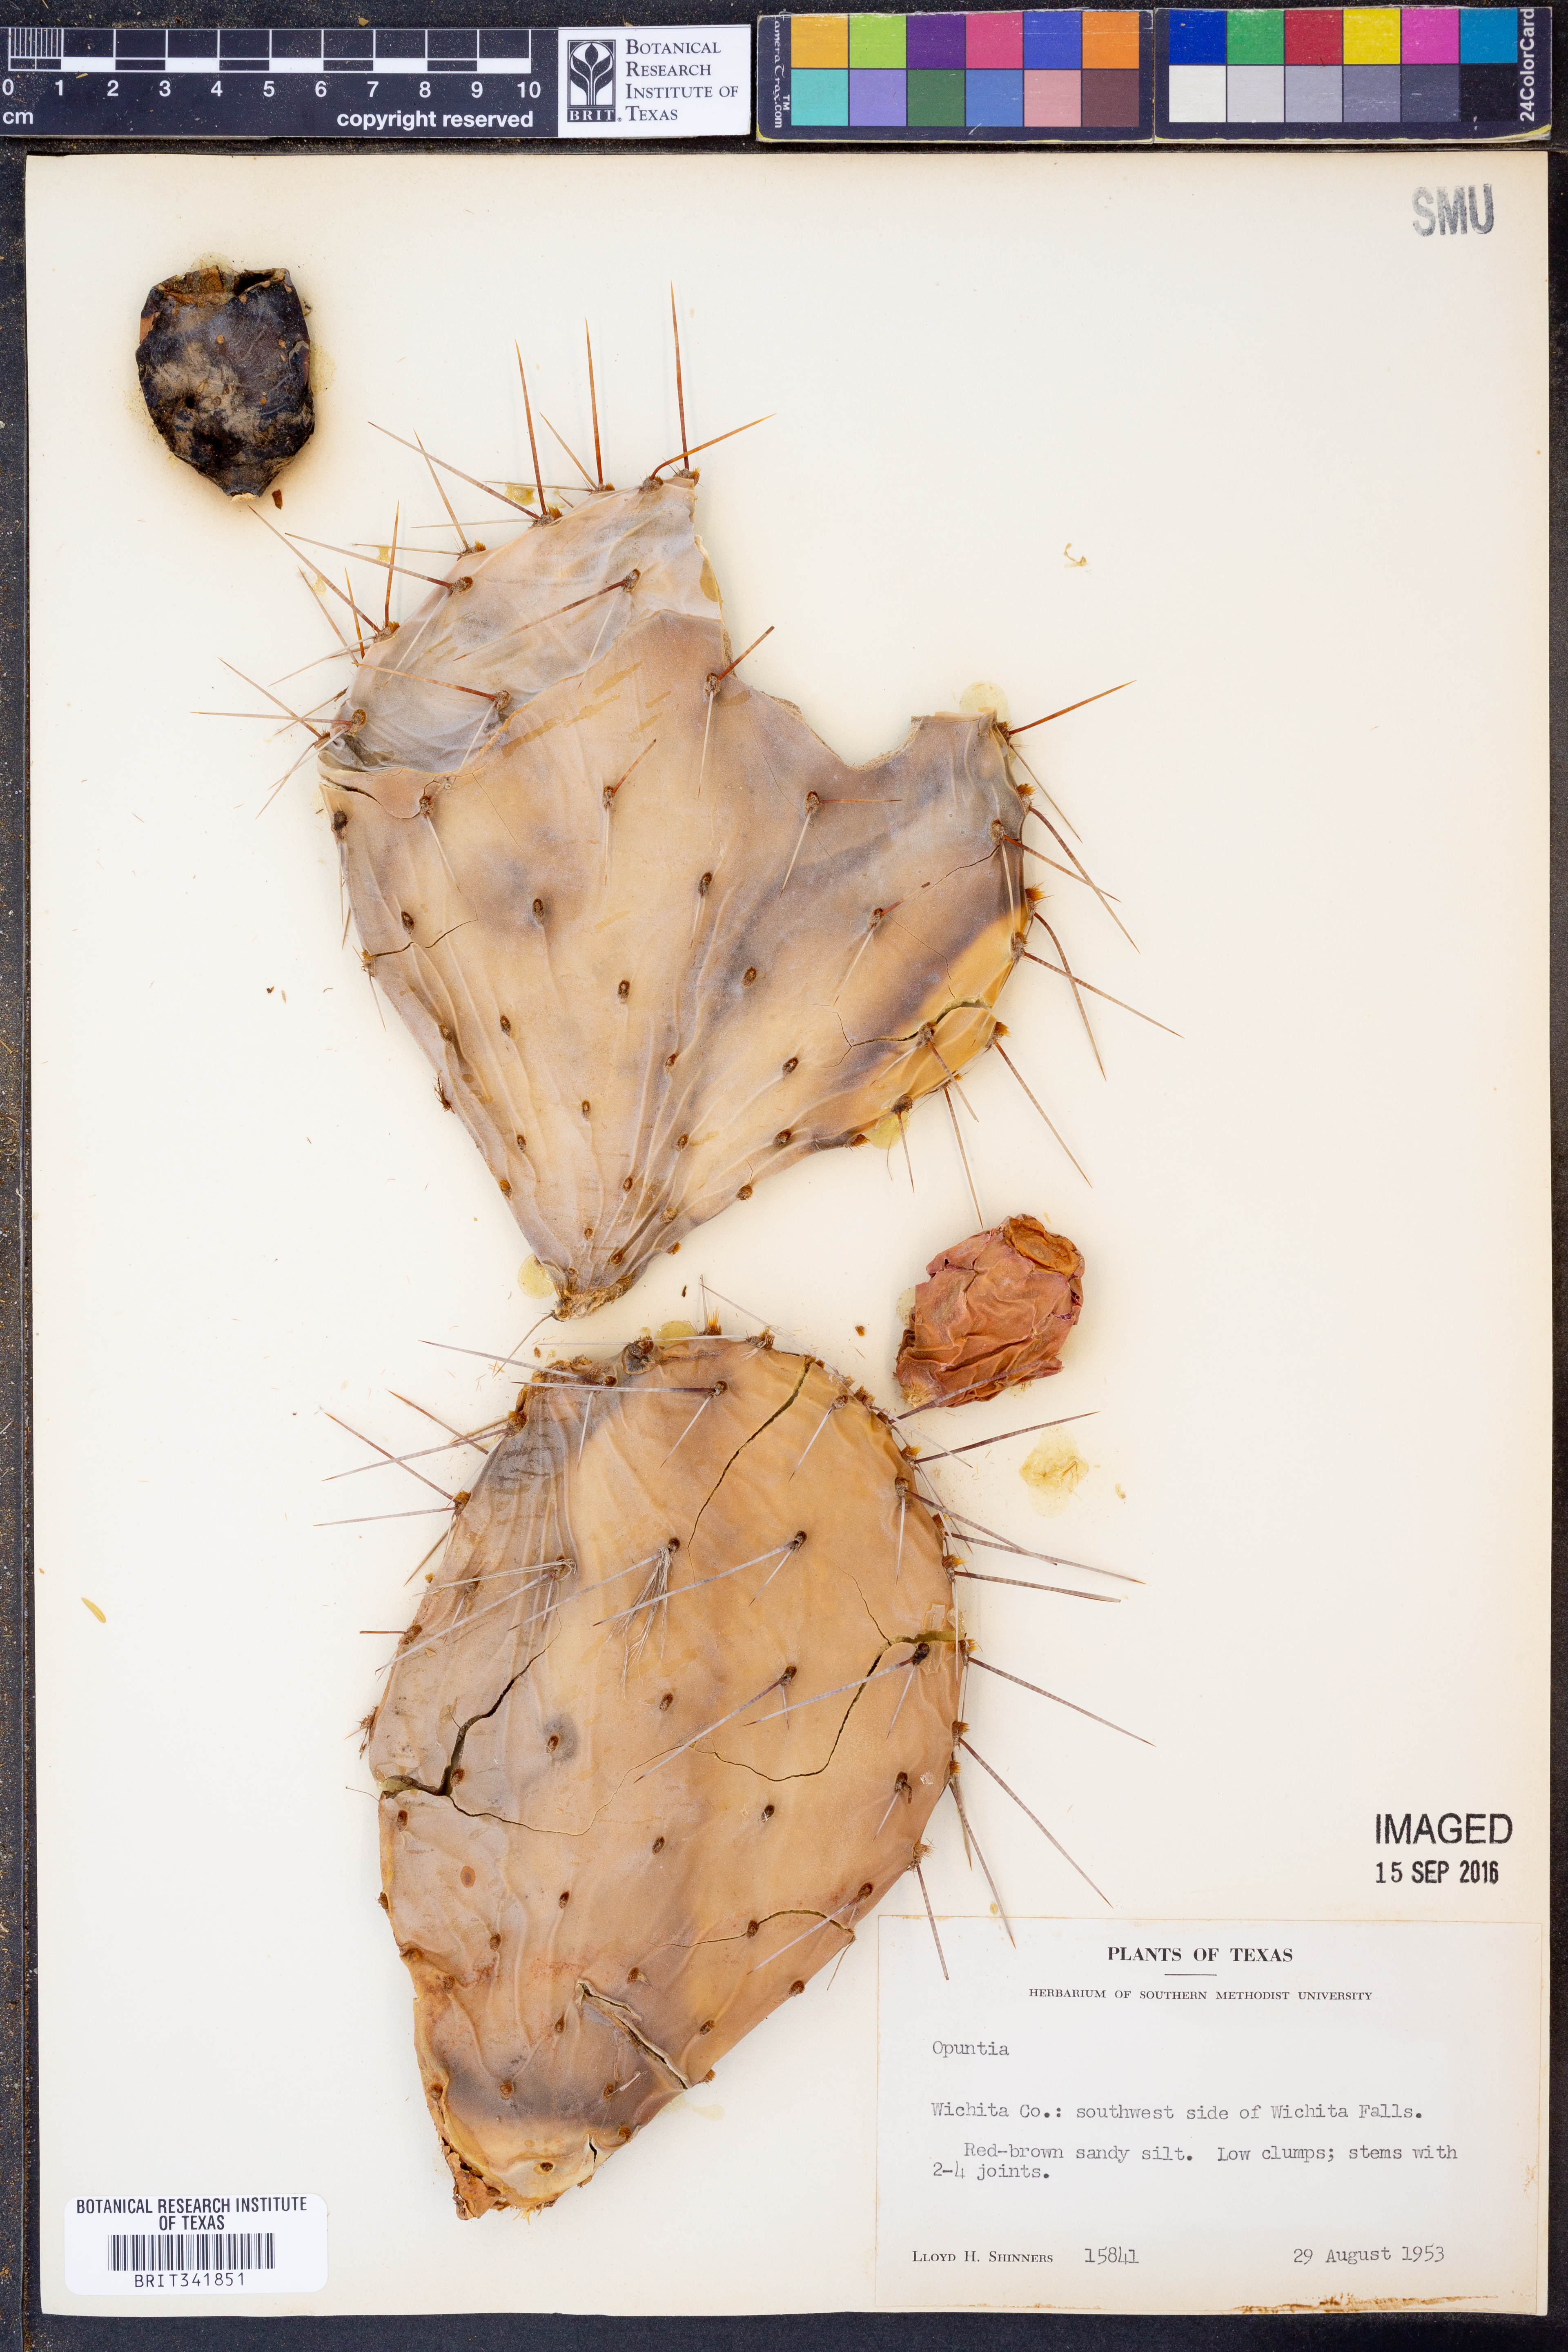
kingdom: Plantae
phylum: Tracheophyta
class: Magnoliopsida
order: Caryophyllales
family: Cactaceae
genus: Opuntia
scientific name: Opuntia
